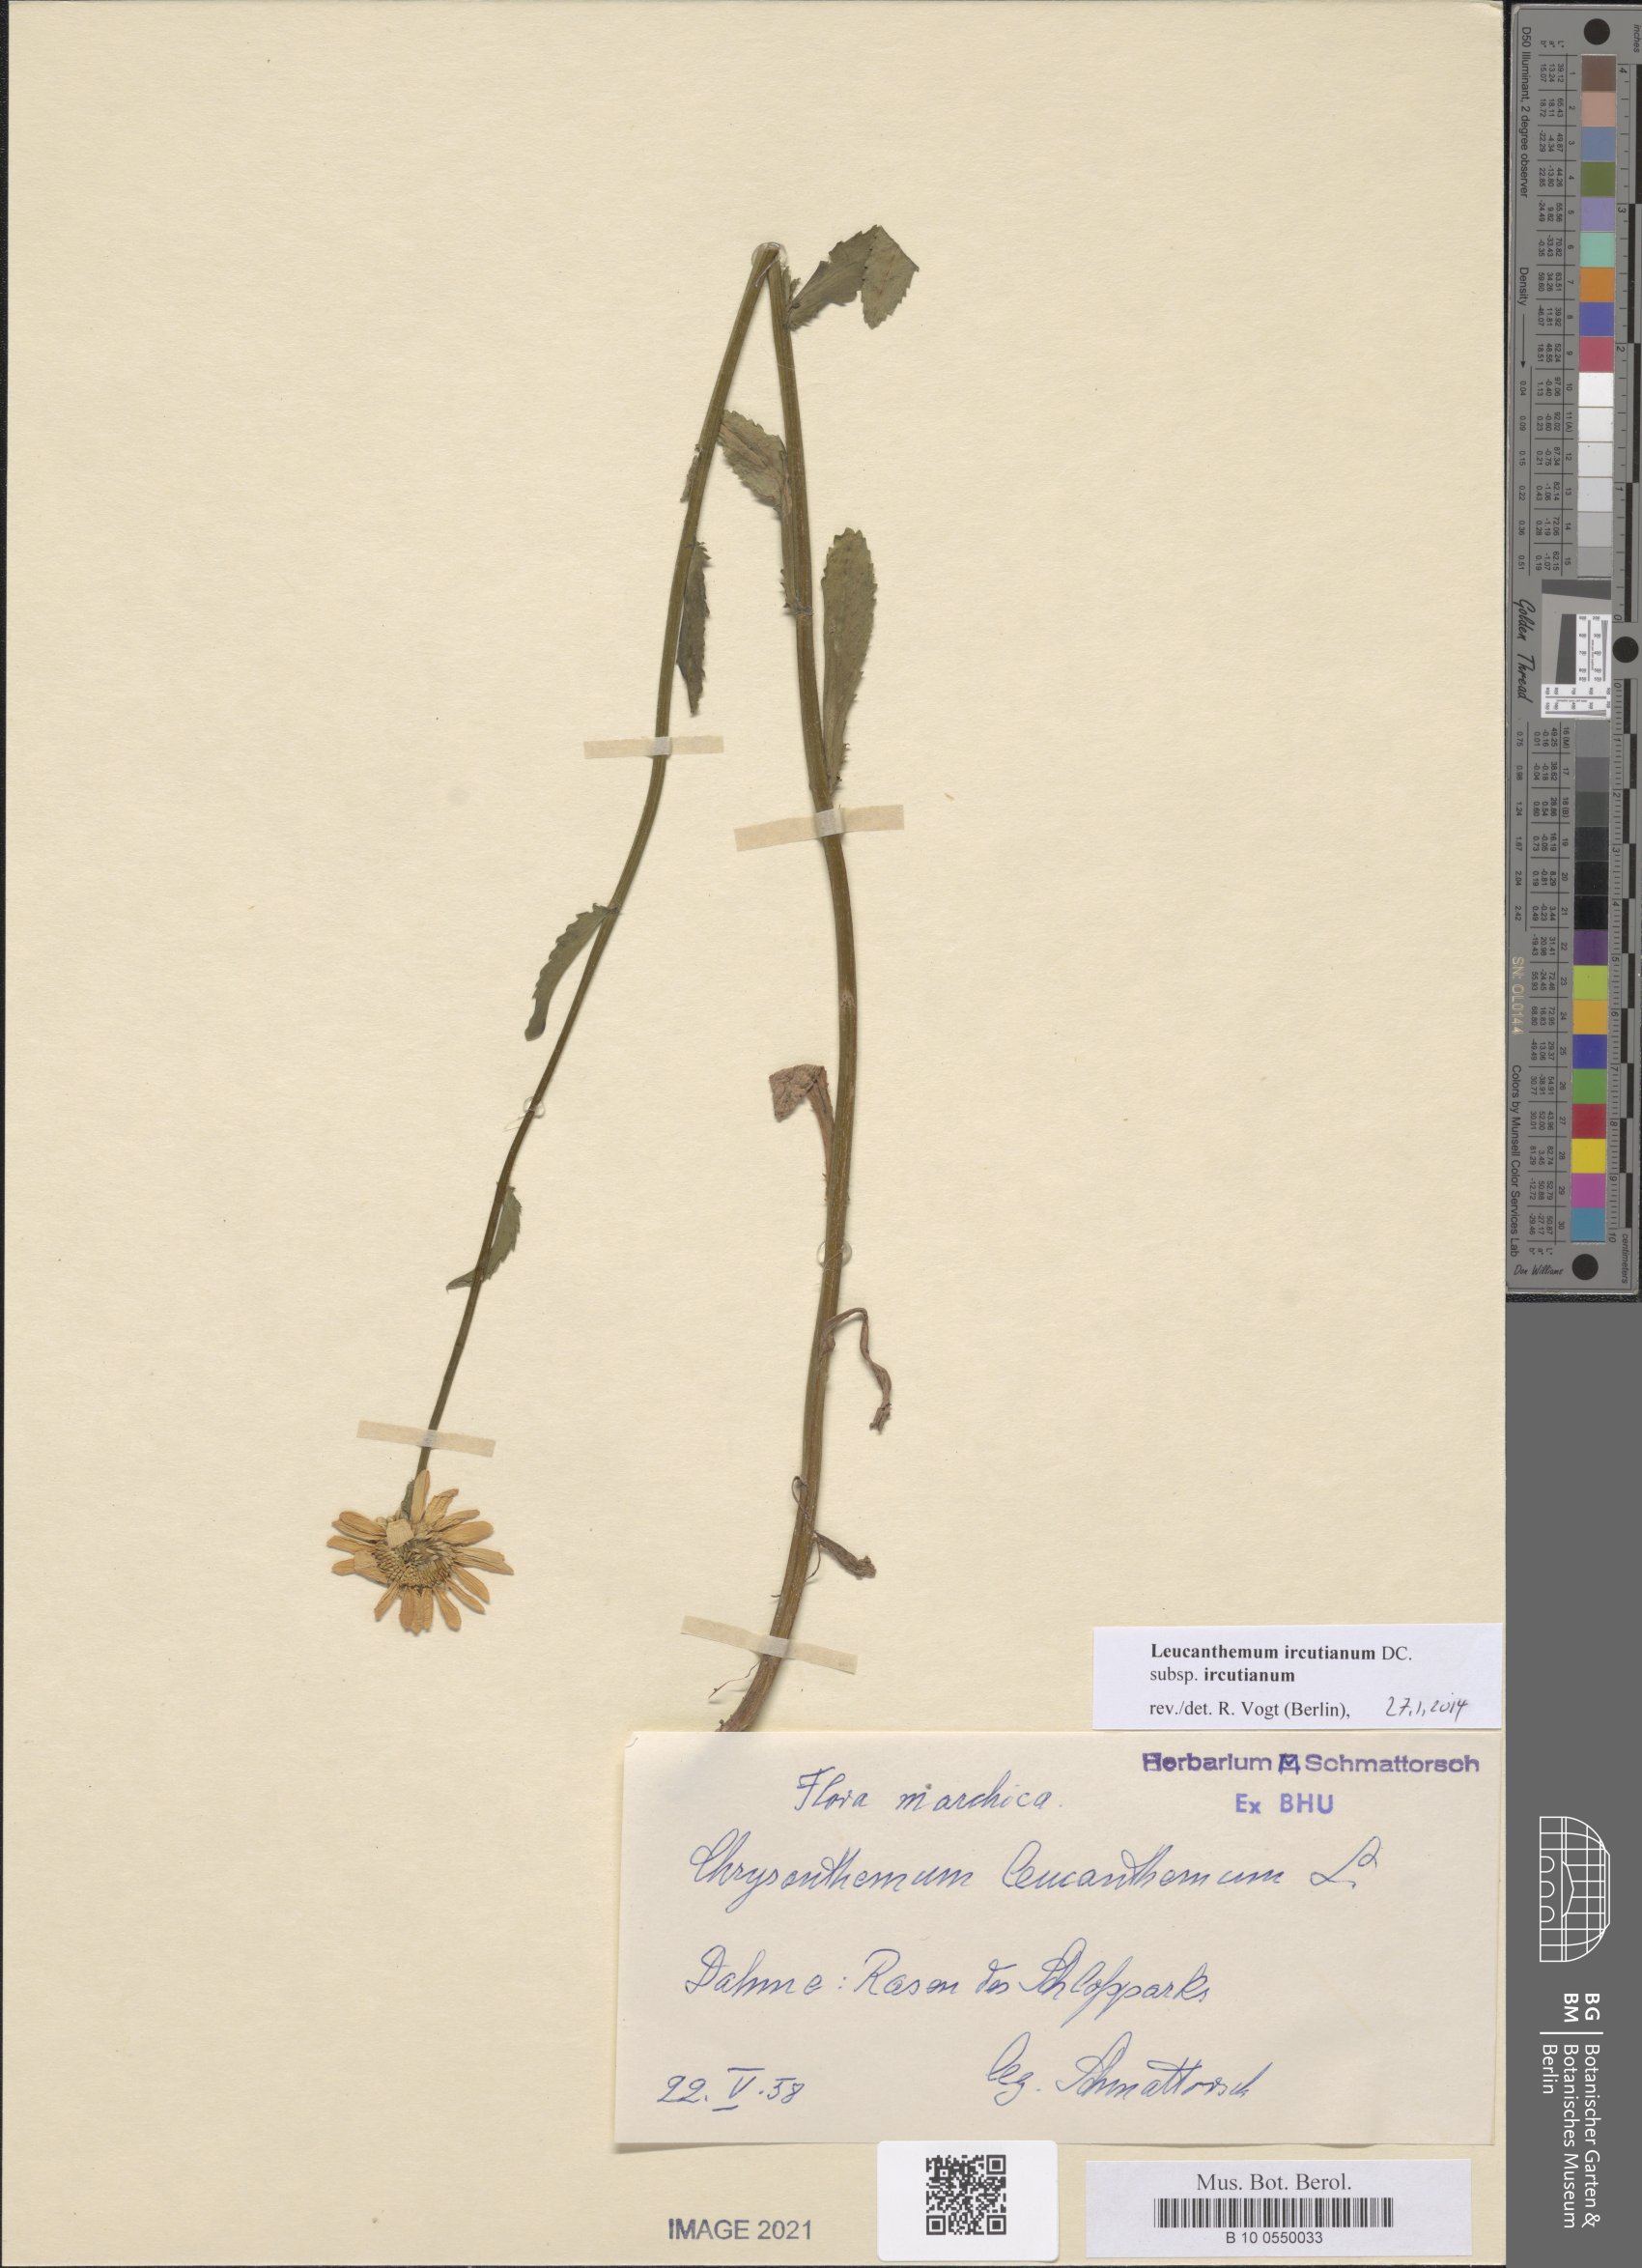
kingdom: Plantae
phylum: Tracheophyta
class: Magnoliopsida
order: Asterales
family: Asteraceae
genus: Leucanthemum
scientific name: Leucanthemum ircutianum
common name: Daisy
